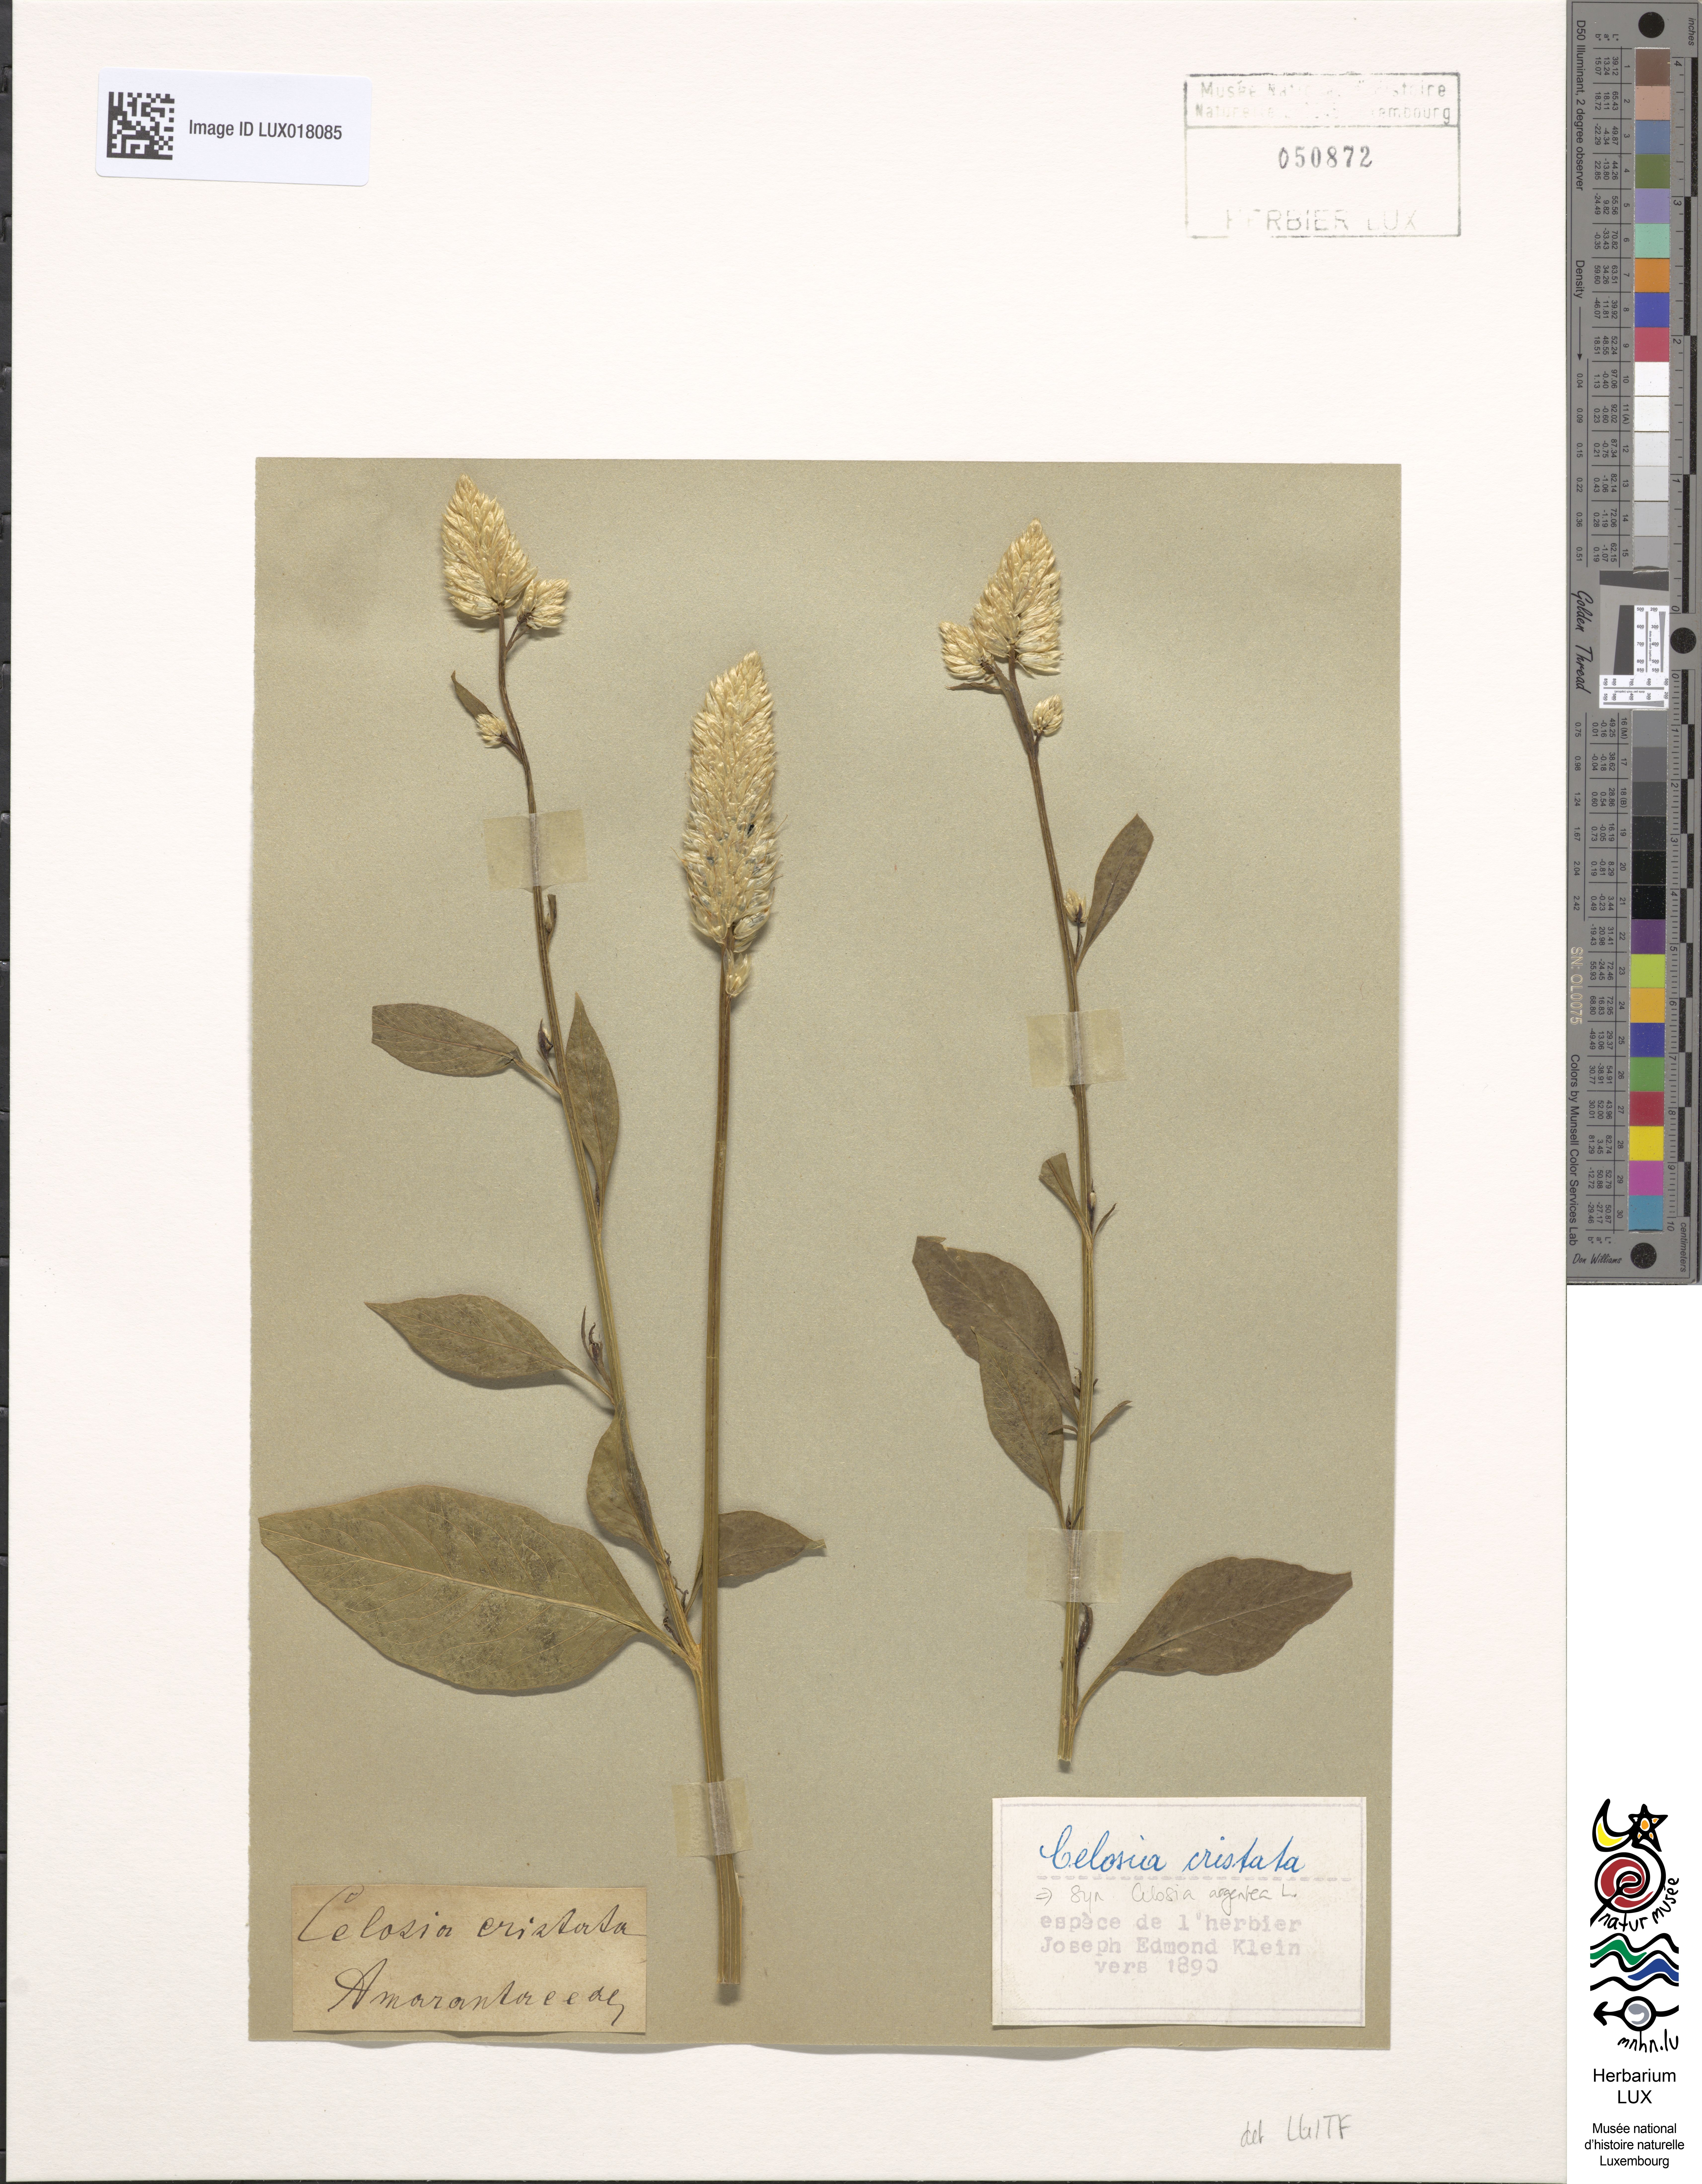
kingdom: Plantae
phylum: Tracheophyta
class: Magnoliopsida
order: Caryophyllales
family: Amaranthaceae
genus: Celosia
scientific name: Celosia argentea
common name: Feather cockscomb
